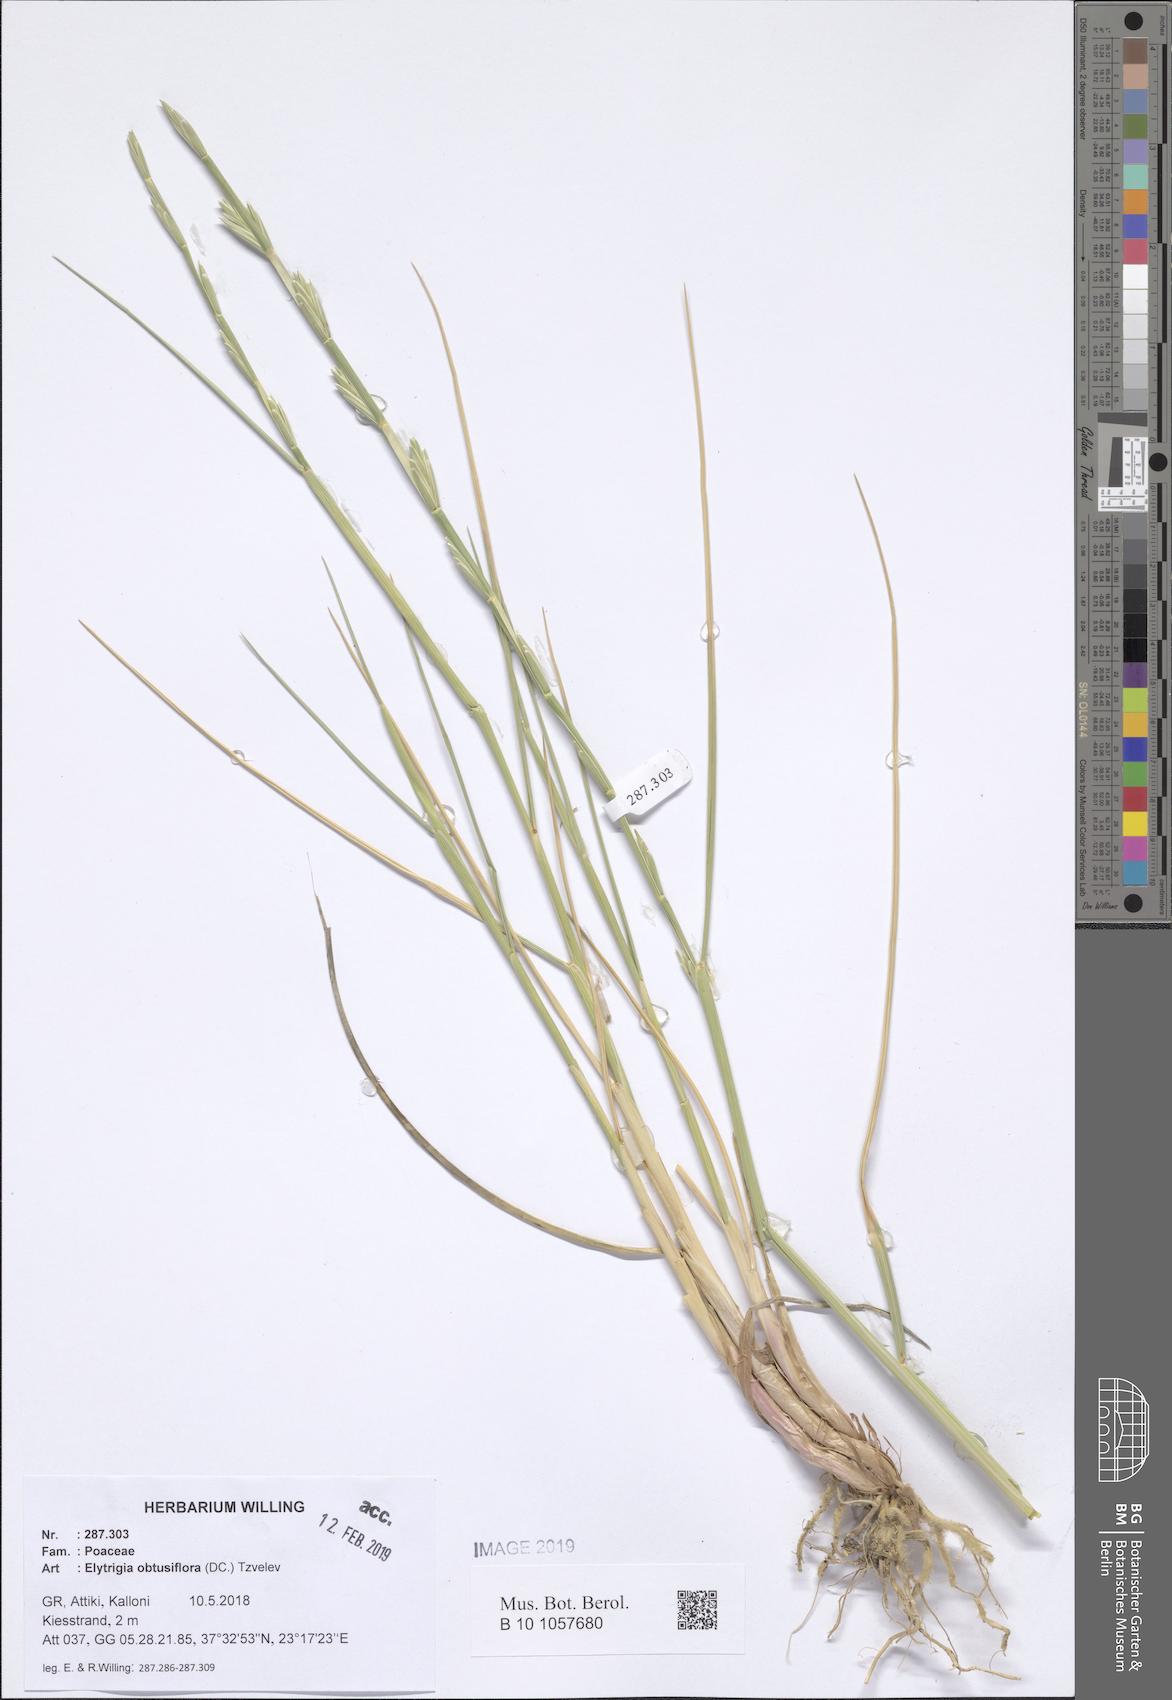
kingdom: Plantae
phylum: Tracheophyta
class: Liliopsida
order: Poales
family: Poaceae
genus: Thinopyrum
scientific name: Thinopyrum obtusiflorum
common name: Eurasian quackgrass
